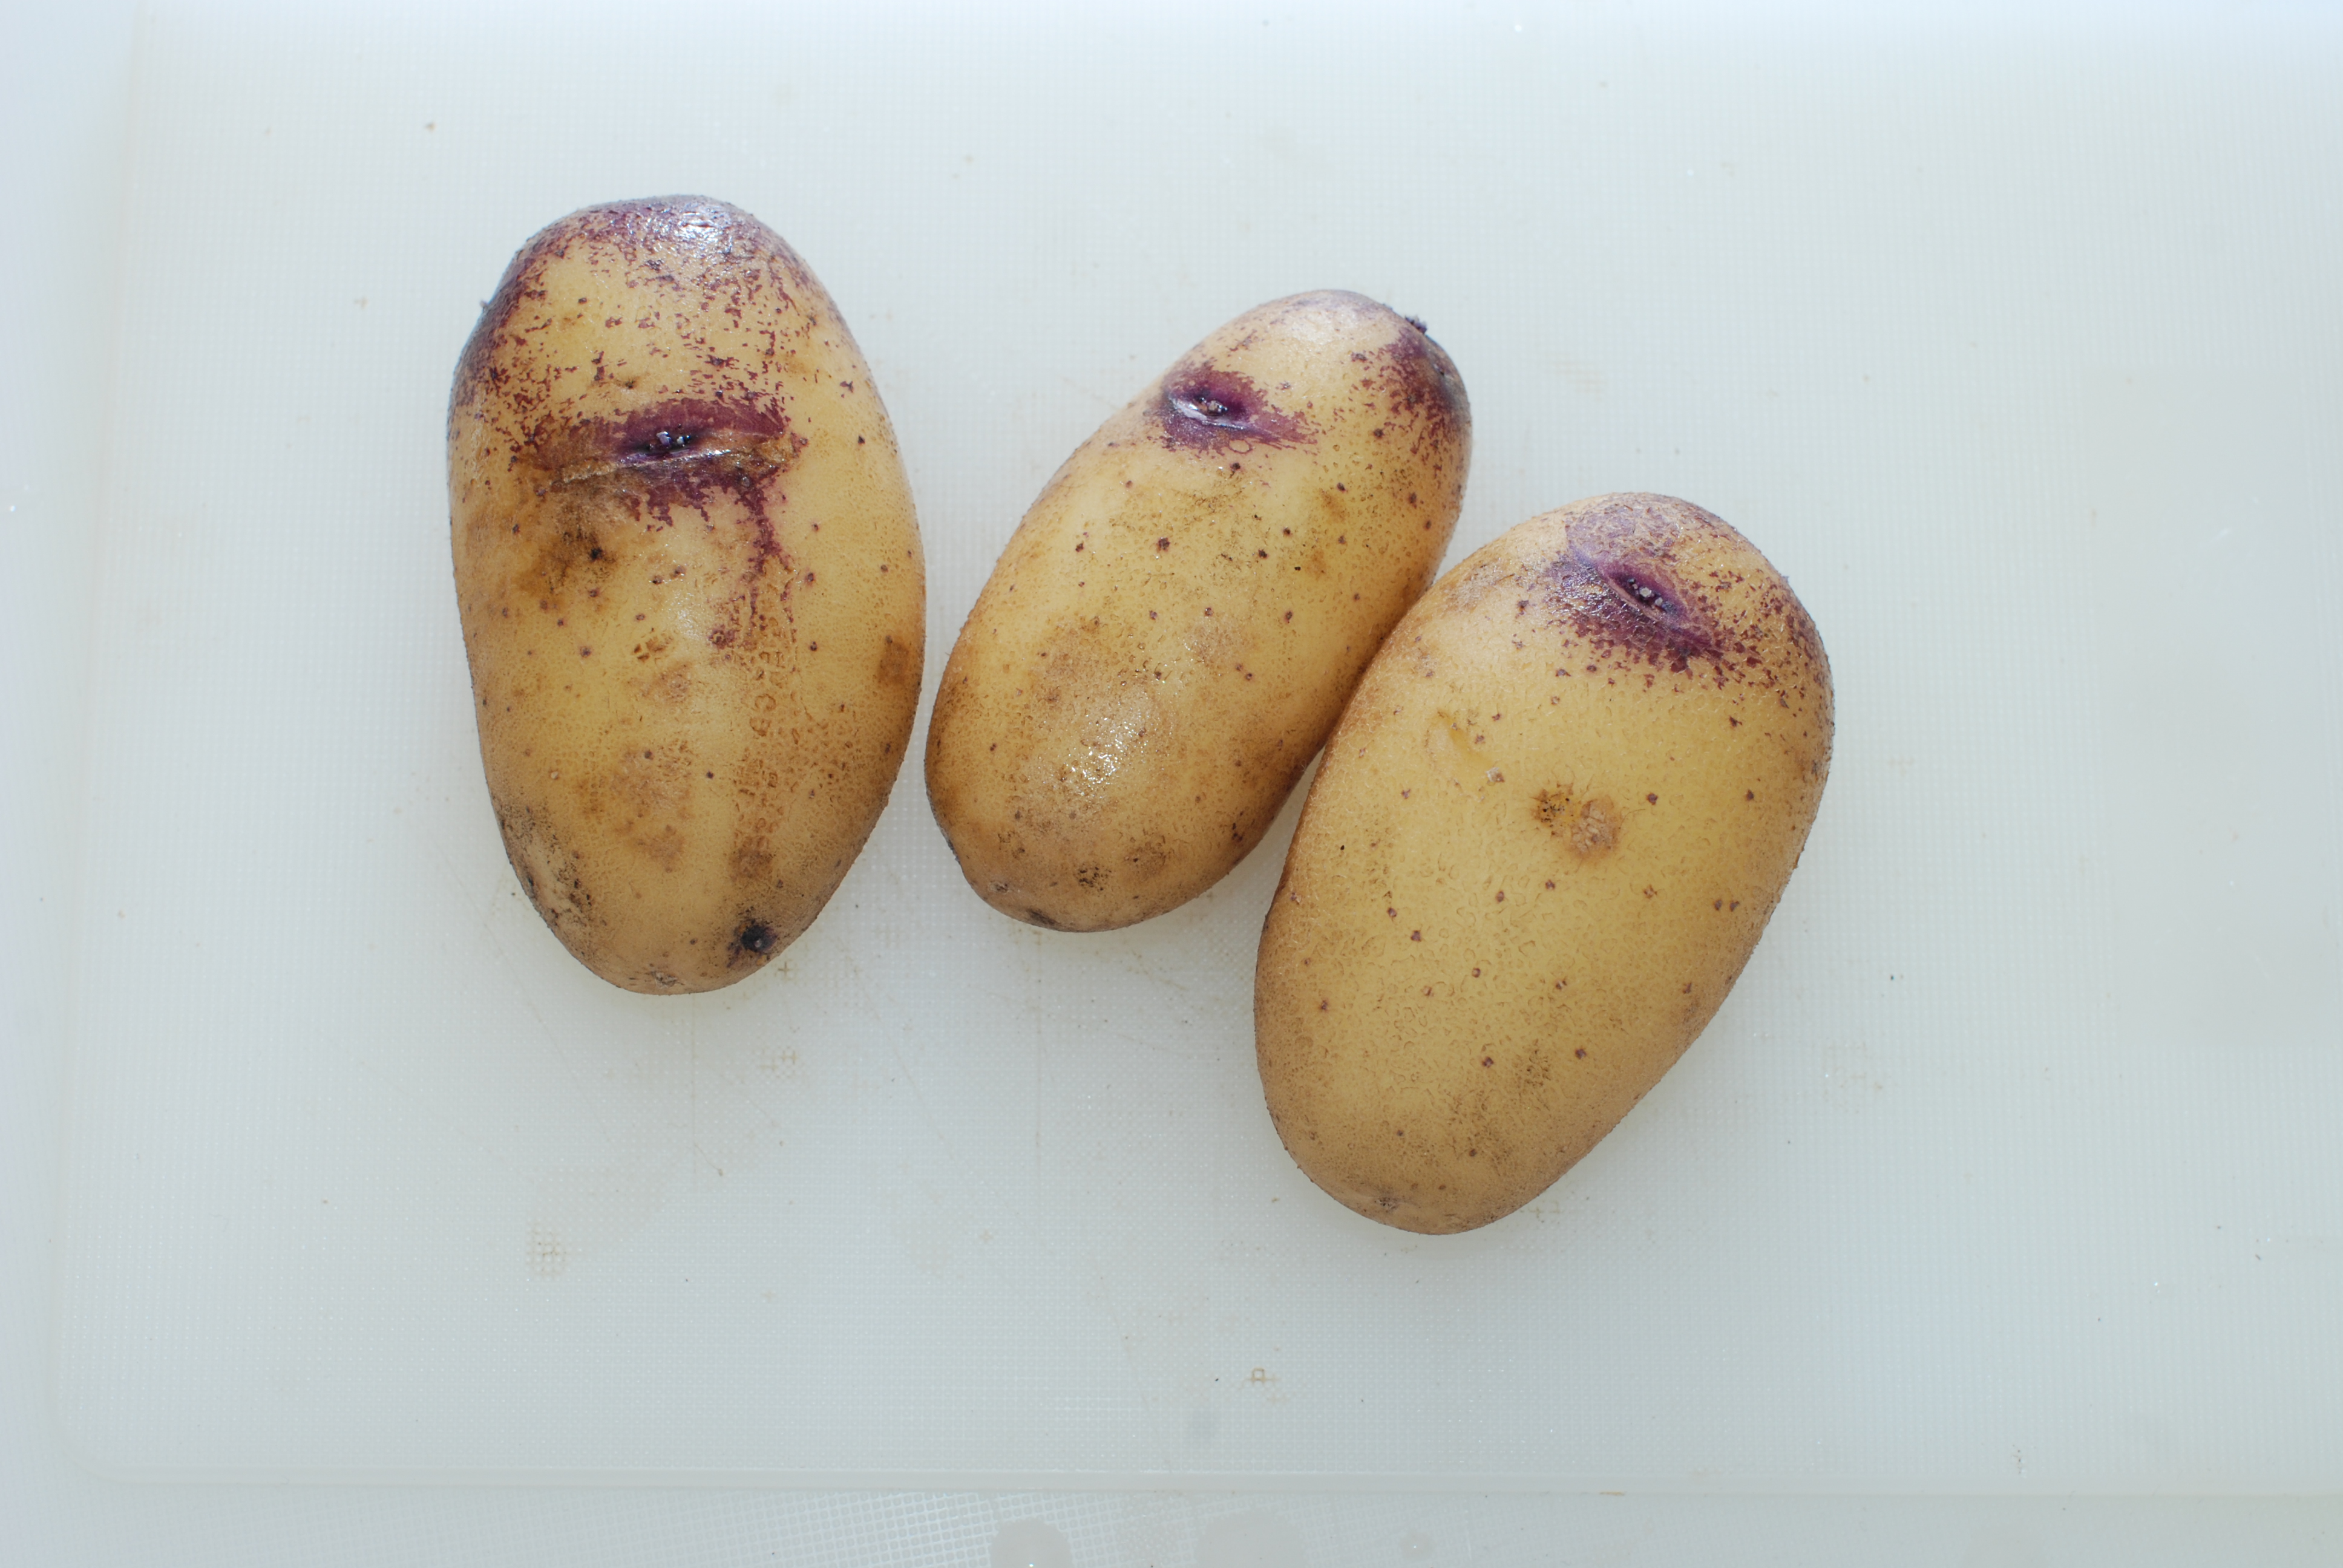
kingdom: Plantae
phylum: Tracheophyta
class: Magnoliopsida
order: Solanales
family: Solanaceae
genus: Solanum
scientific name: Solanum tuberosum
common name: Potato
